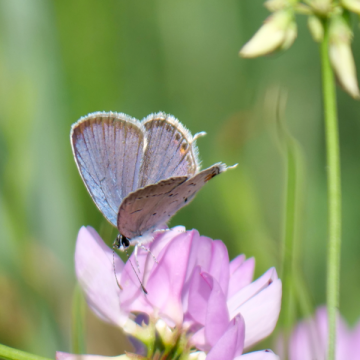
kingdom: Animalia
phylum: Arthropoda
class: Insecta
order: Lepidoptera
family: Lycaenidae
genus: Elkalyce
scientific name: Elkalyce comyntas
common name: Eastern Tailed-Blue
